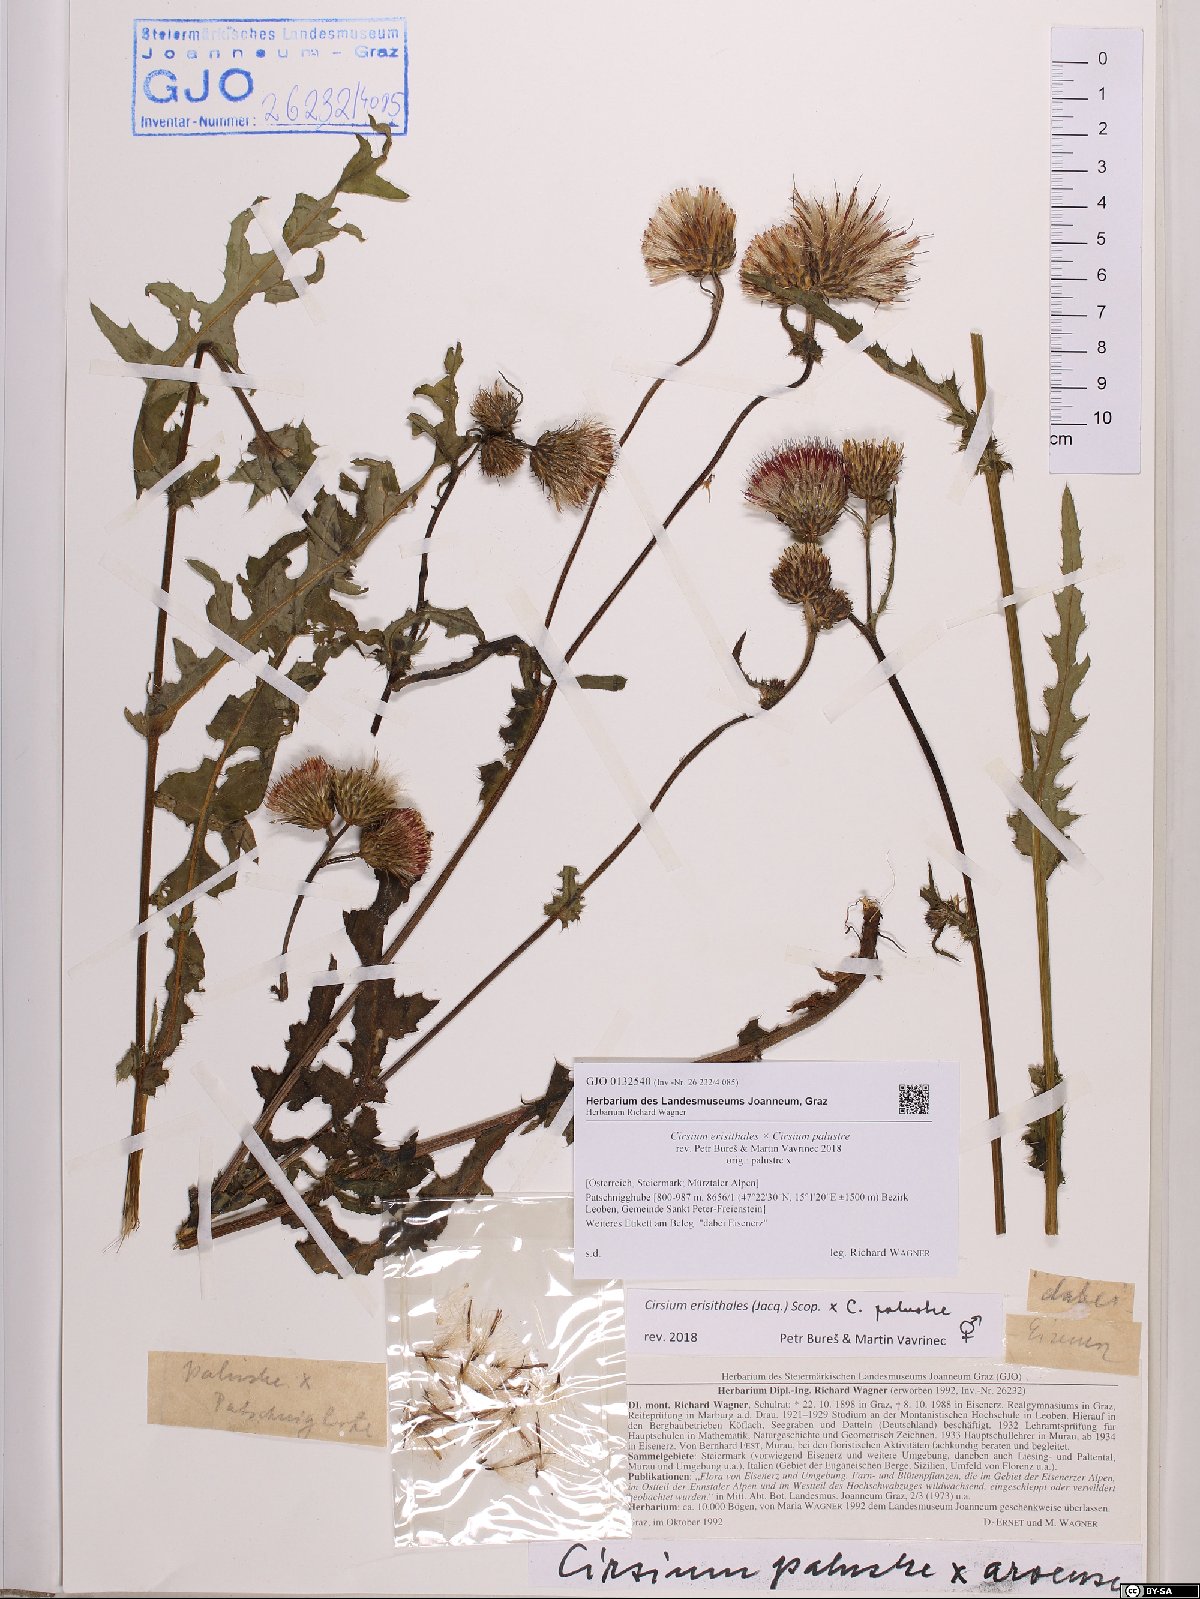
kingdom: Plantae
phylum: Tracheophyta
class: Magnoliopsida
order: Asterales
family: Asteraceae
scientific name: Asteraceae
